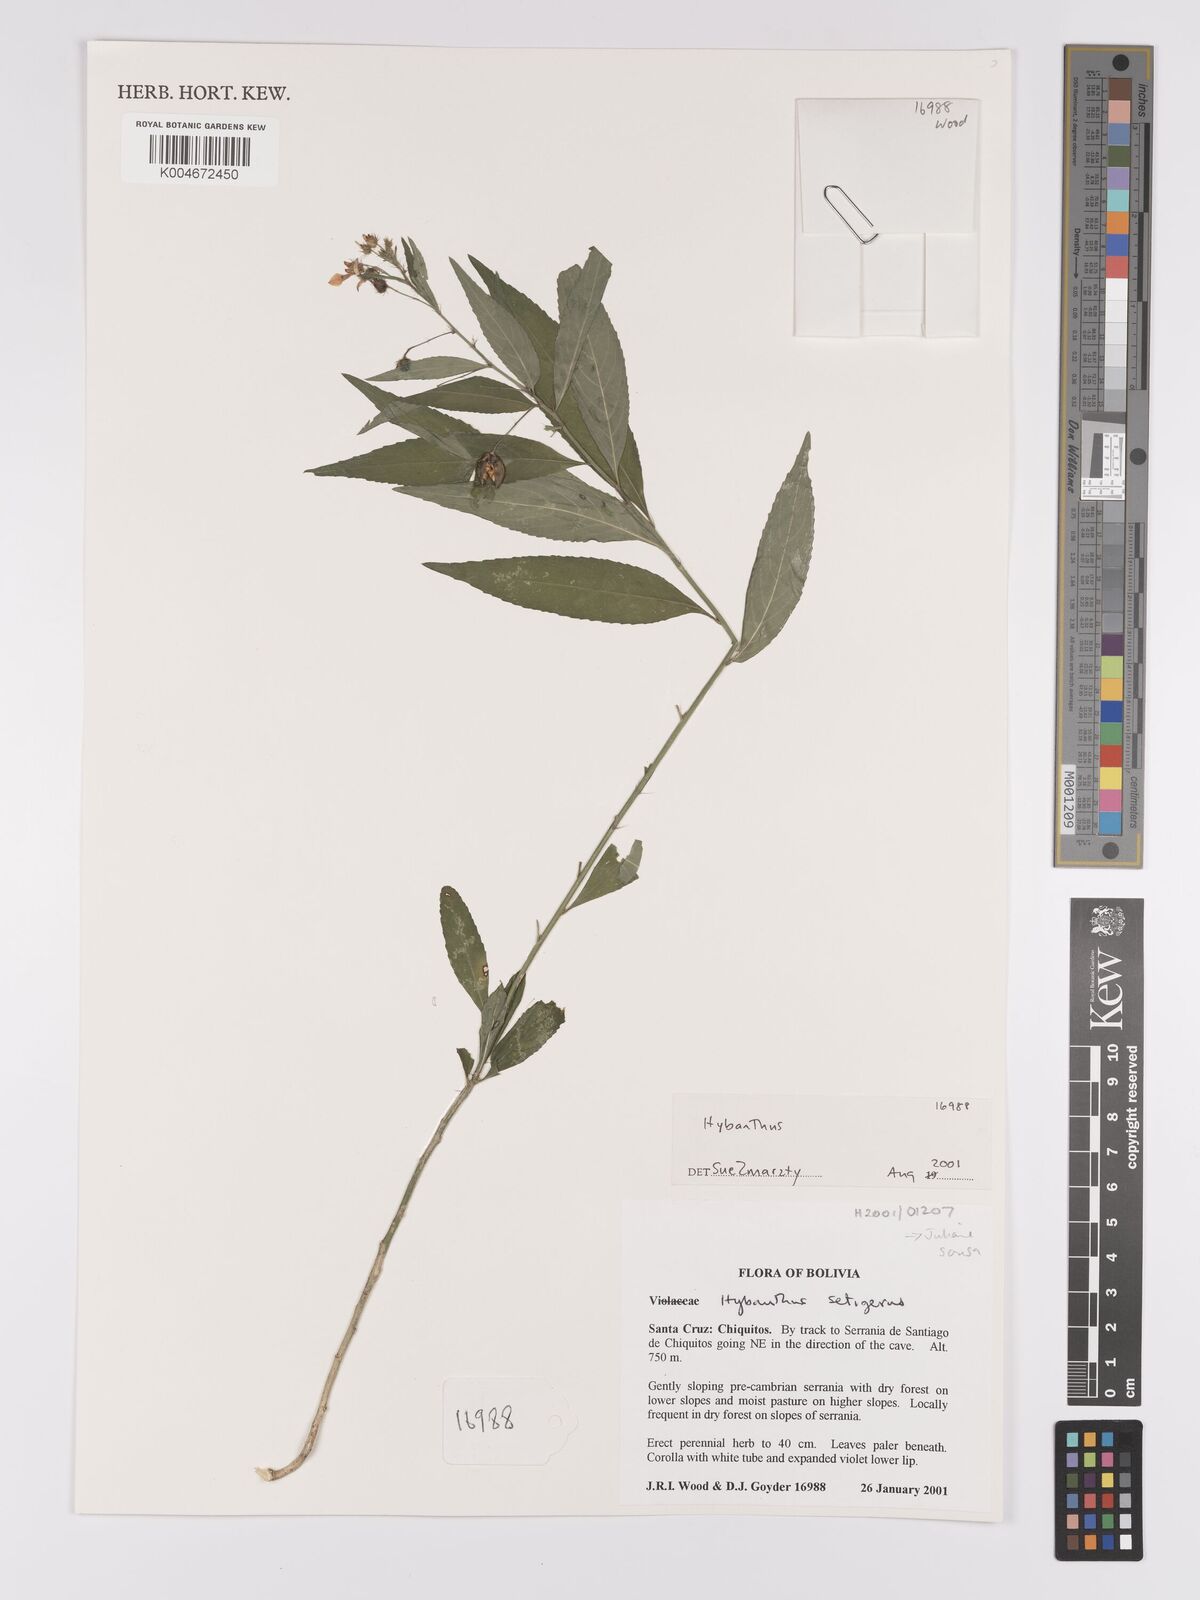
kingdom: Plantae
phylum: Tracheophyta
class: Magnoliopsida
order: Malpighiales
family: Violaceae
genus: Pombalia
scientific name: Pombalia setigera
